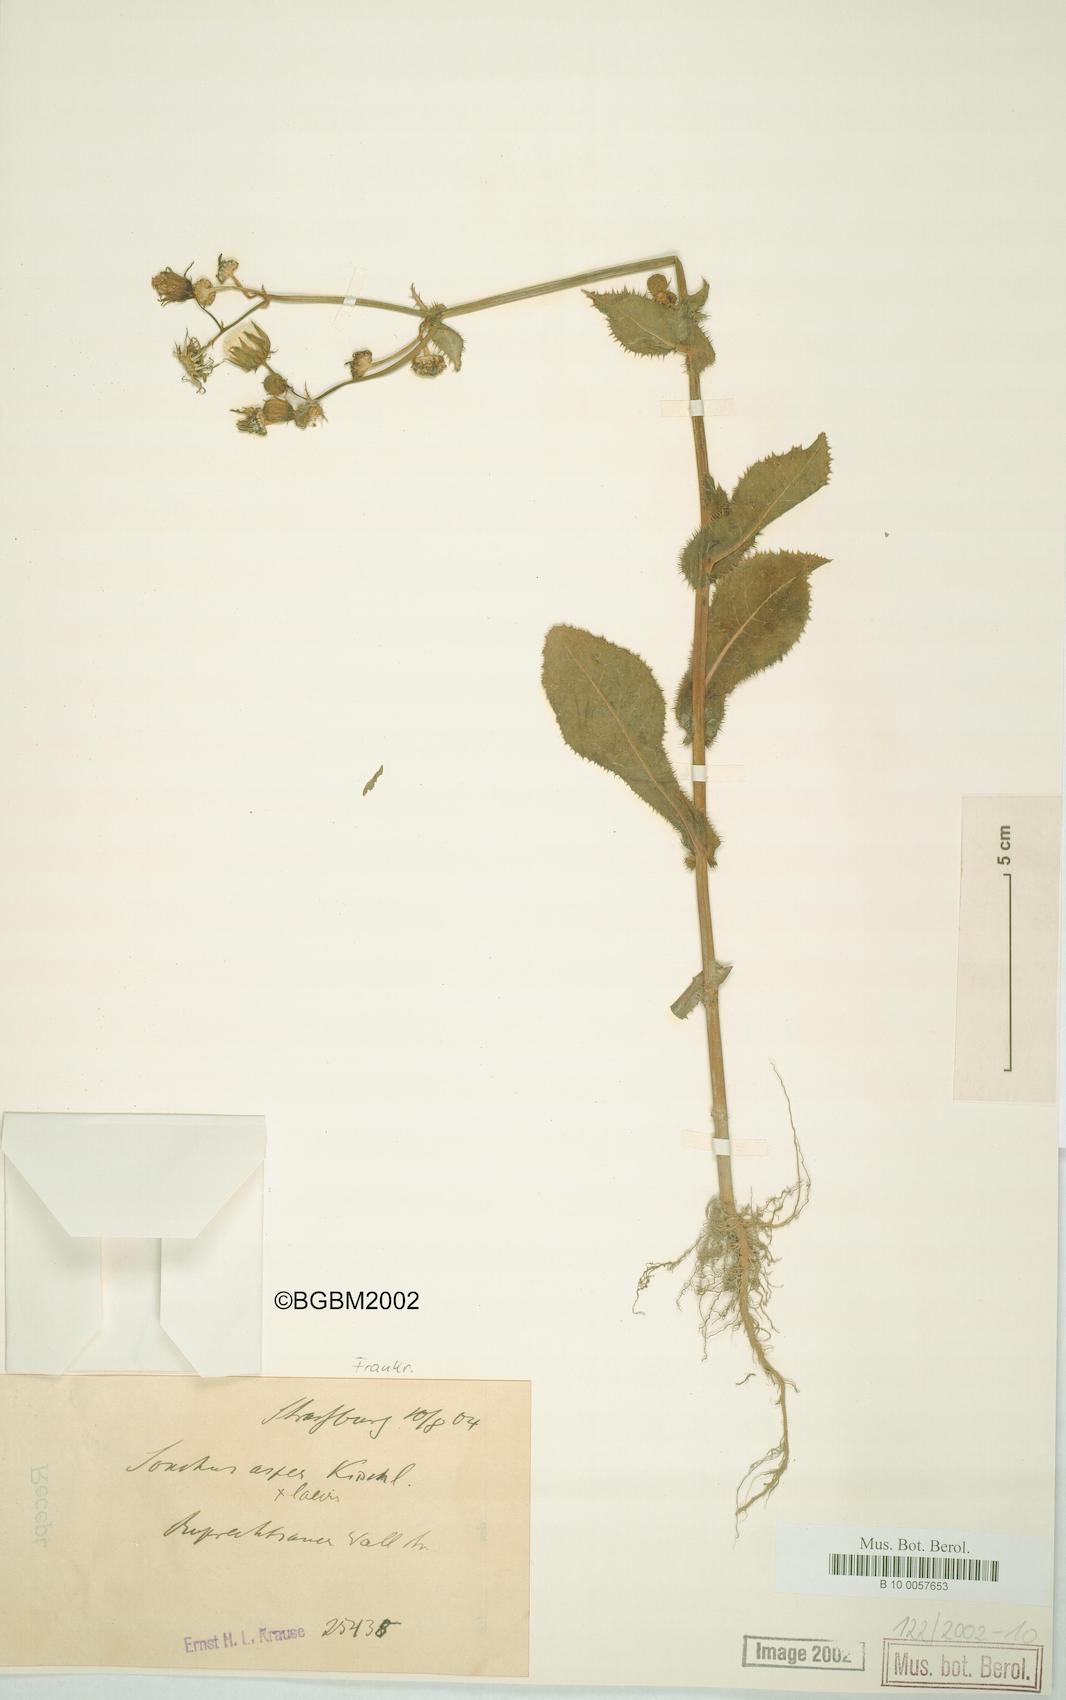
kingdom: Plantae
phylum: Tracheophyta
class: Magnoliopsida
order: Asterales
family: Asteraceae
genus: Sonchus
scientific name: Sonchus asper
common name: Prickly sow-thistle
